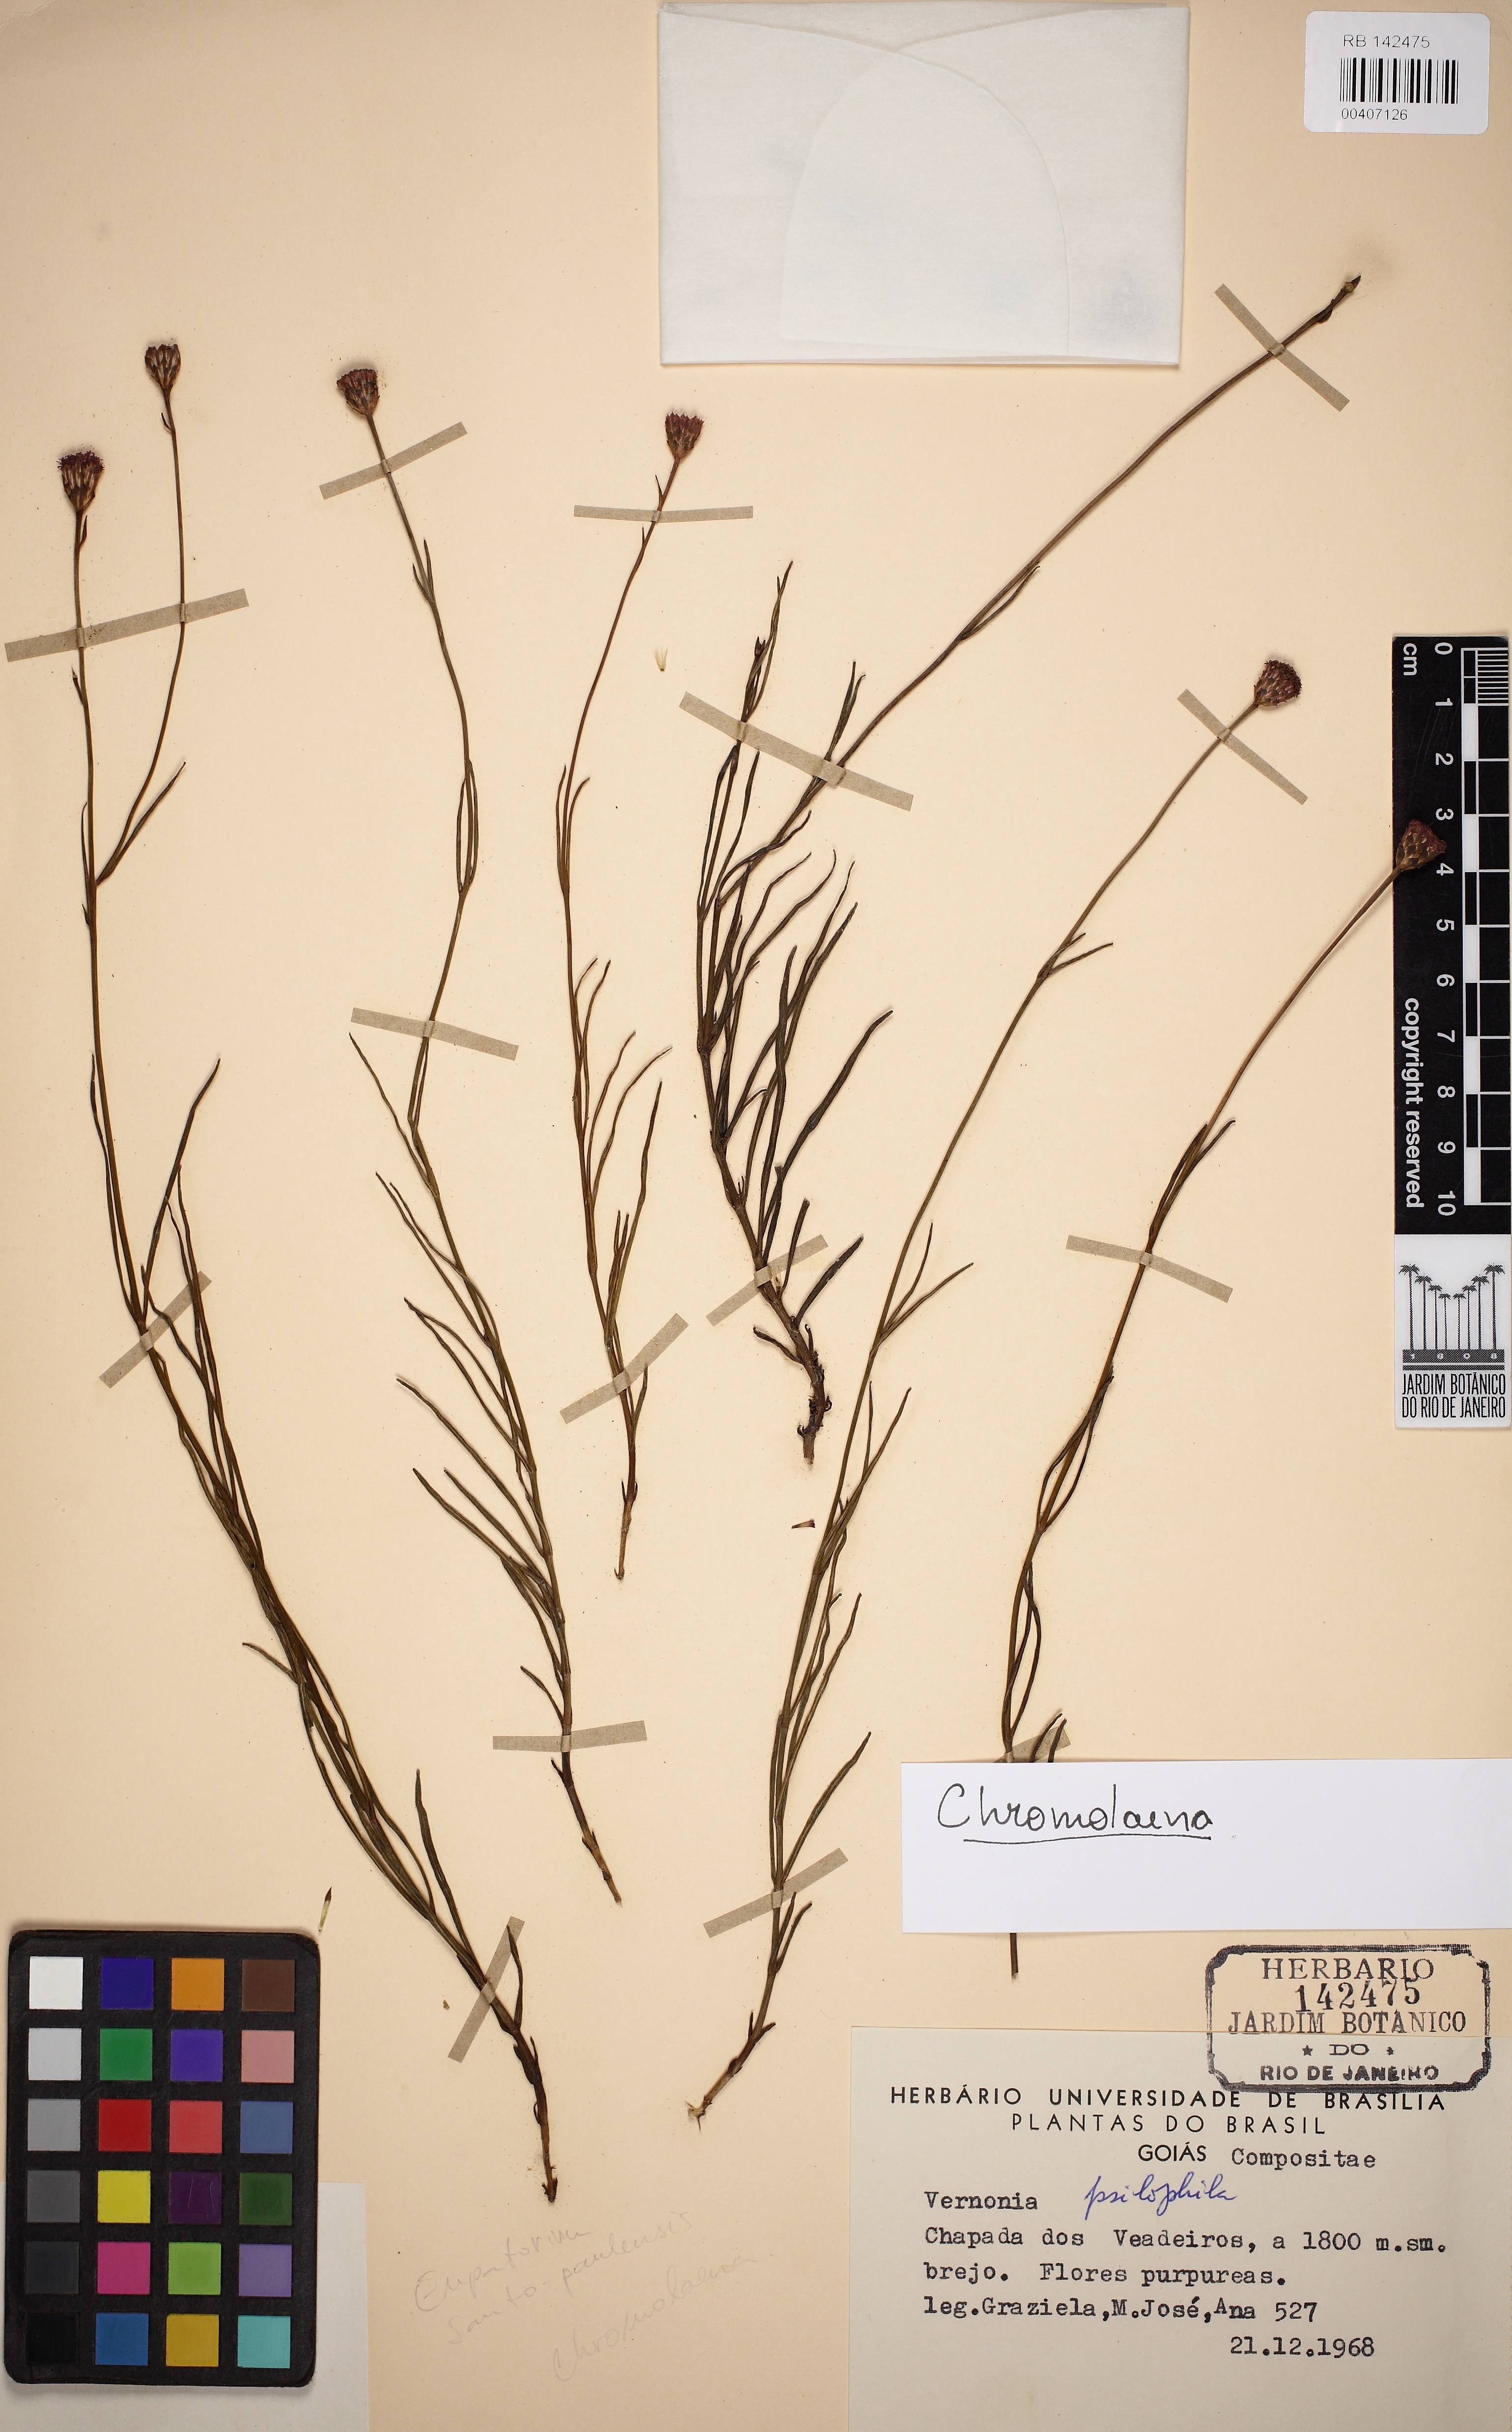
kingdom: Plantae
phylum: Tracheophyta
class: Magnoliopsida
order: Asterales
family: Asteraceae
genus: Chromolaena
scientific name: Chromolaena pseudinsignis
